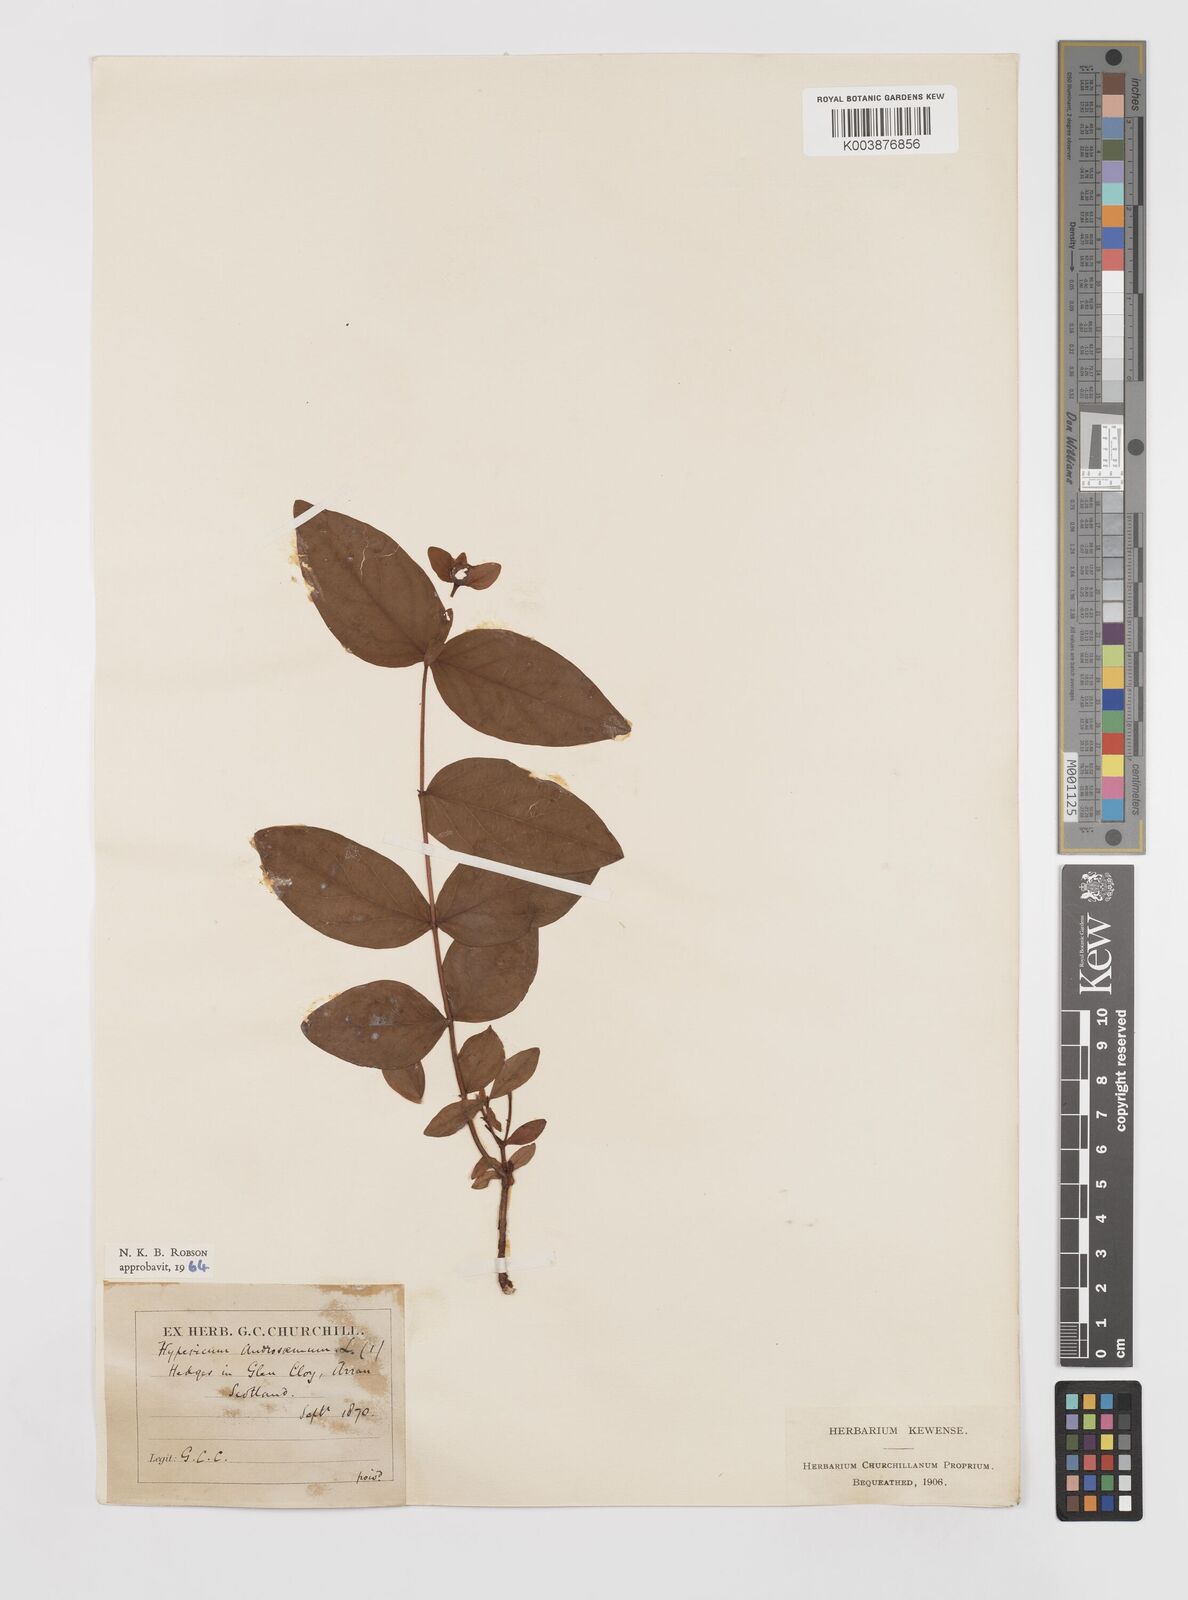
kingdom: Plantae
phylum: Tracheophyta
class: Magnoliopsida
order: Malpighiales
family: Hypericaceae
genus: Hypericum
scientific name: Hypericum androsaemum
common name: Sweet-amber
